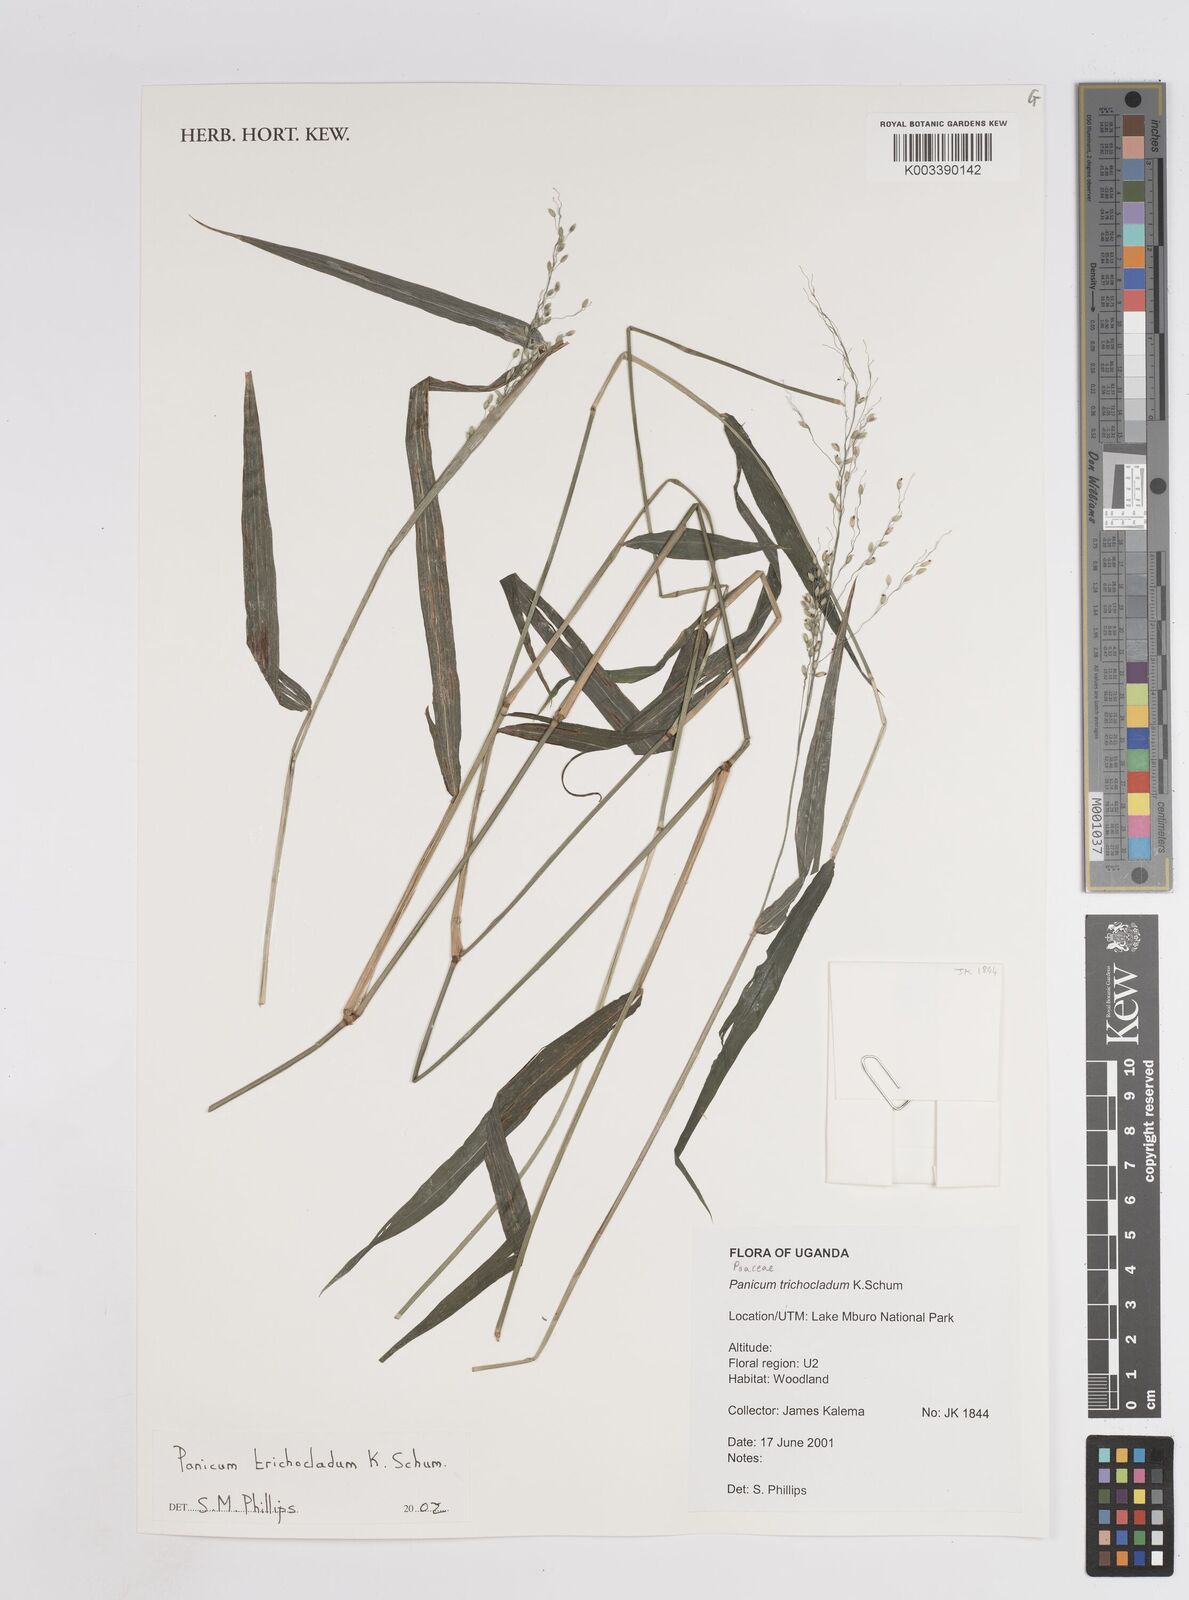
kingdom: Plantae
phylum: Tracheophyta
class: Liliopsida
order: Poales
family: Poaceae
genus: Megathyrsus
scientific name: Megathyrsus maximus
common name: Guineagrass
